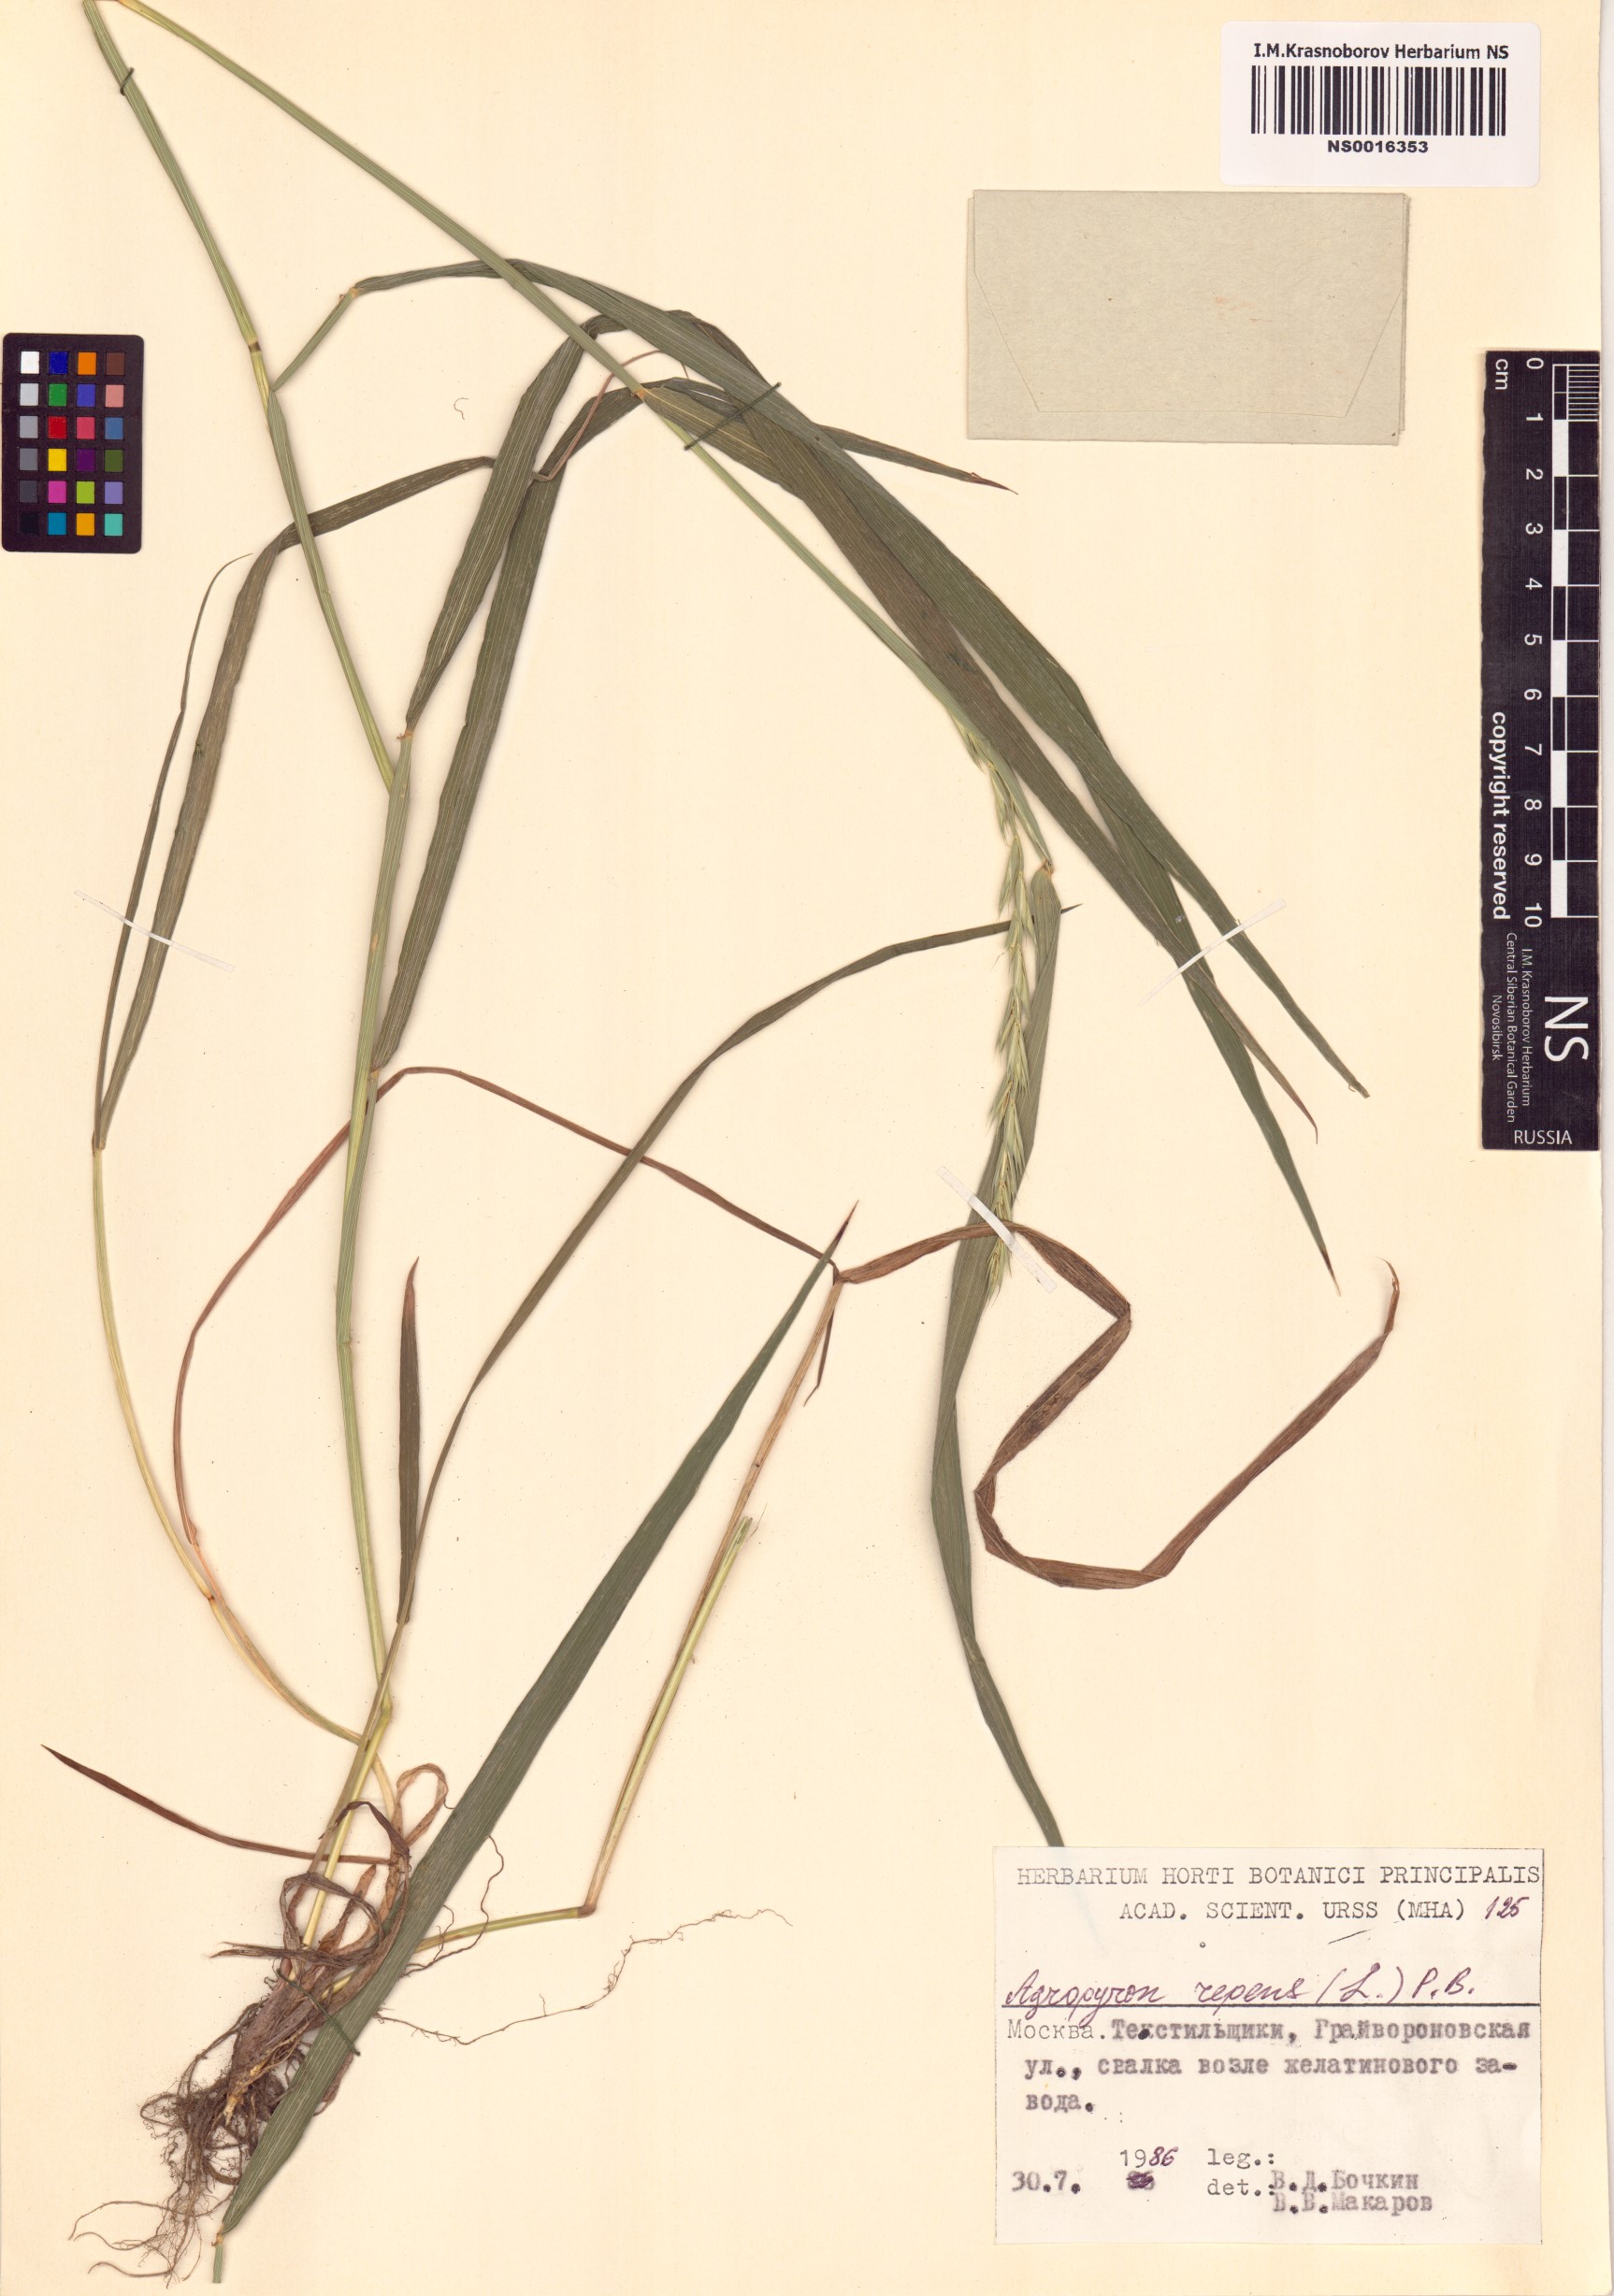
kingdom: Plantae
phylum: Tracheophyta
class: Liliopsida
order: Poales
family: Poaceae
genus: Elymus
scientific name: Elymus repens
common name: Quackgrass
